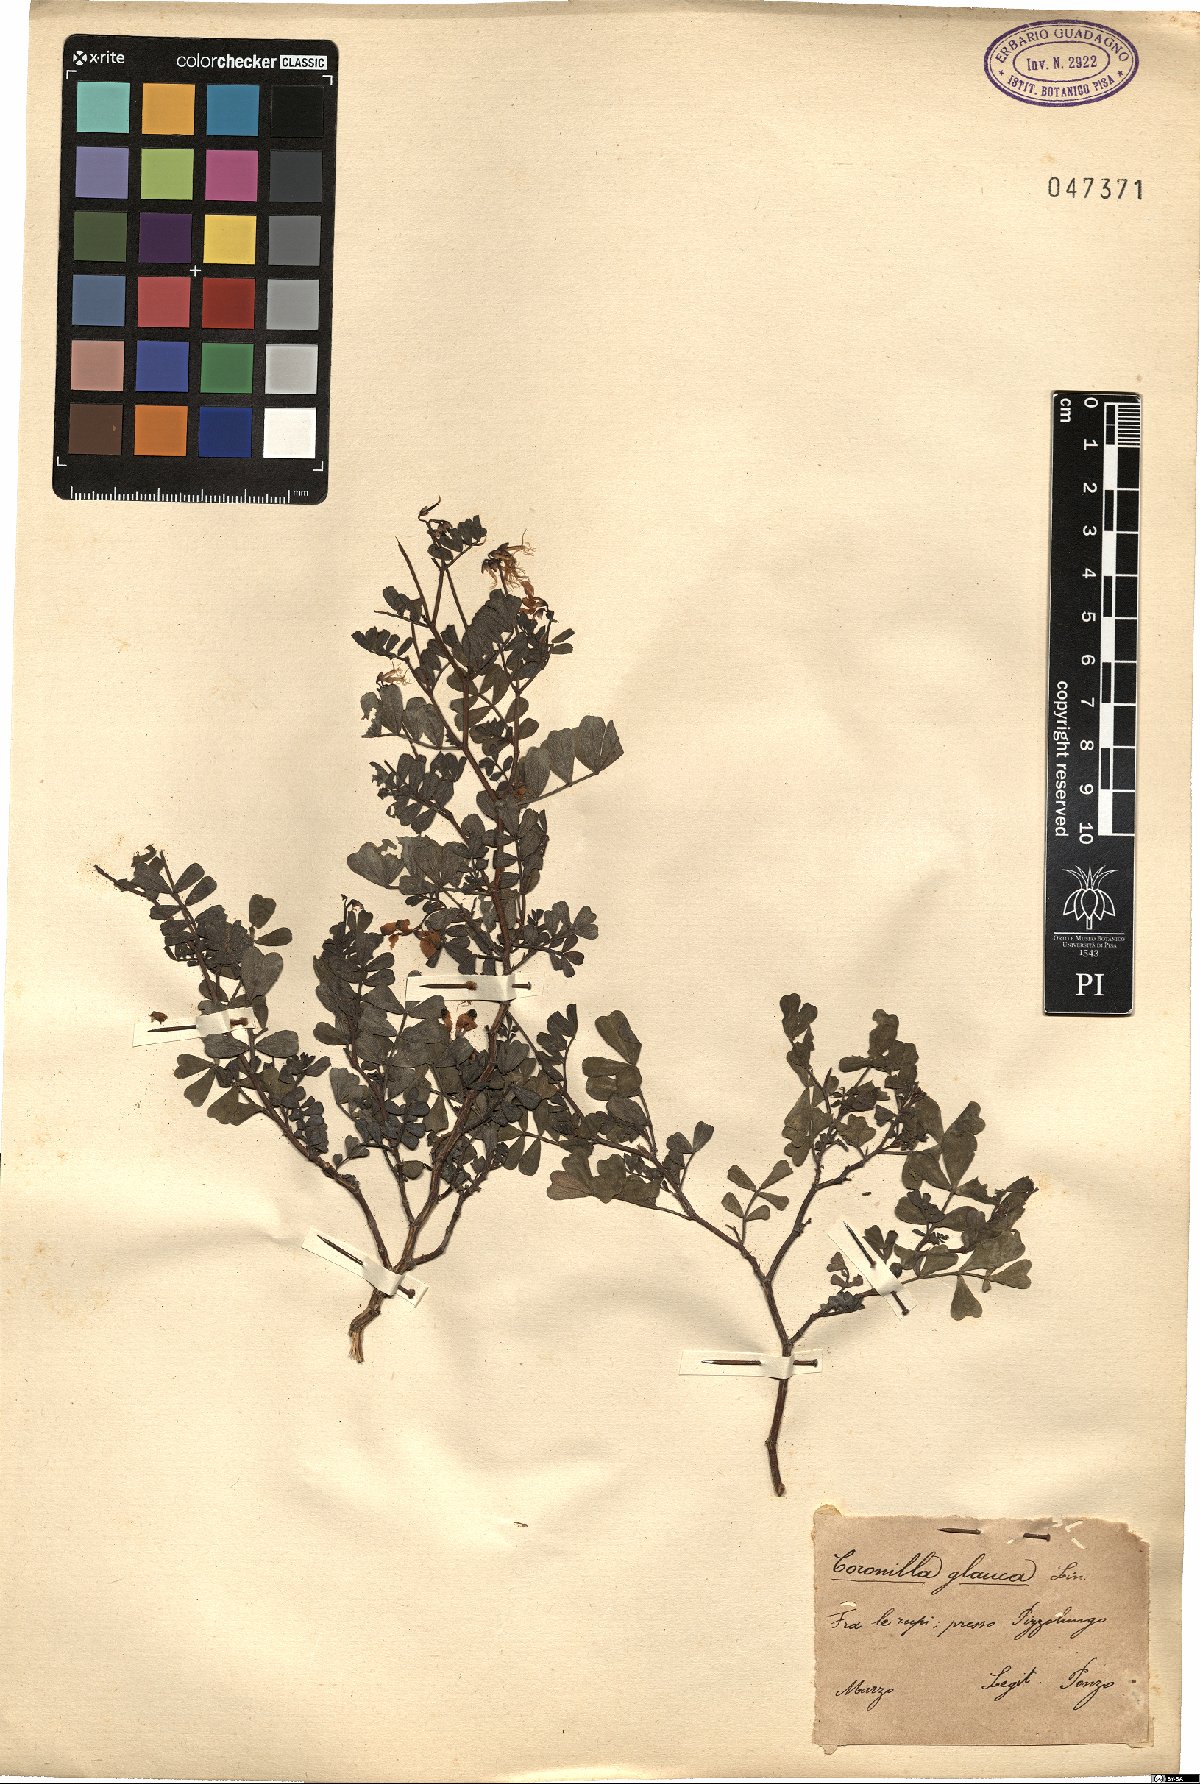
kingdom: Plantae
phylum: Tracheophyta
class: Magnoliopsida
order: Fabales
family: Fabaceae
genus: Coronilla
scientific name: Coronilla valentina
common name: Shrubby scorpion-vetch
